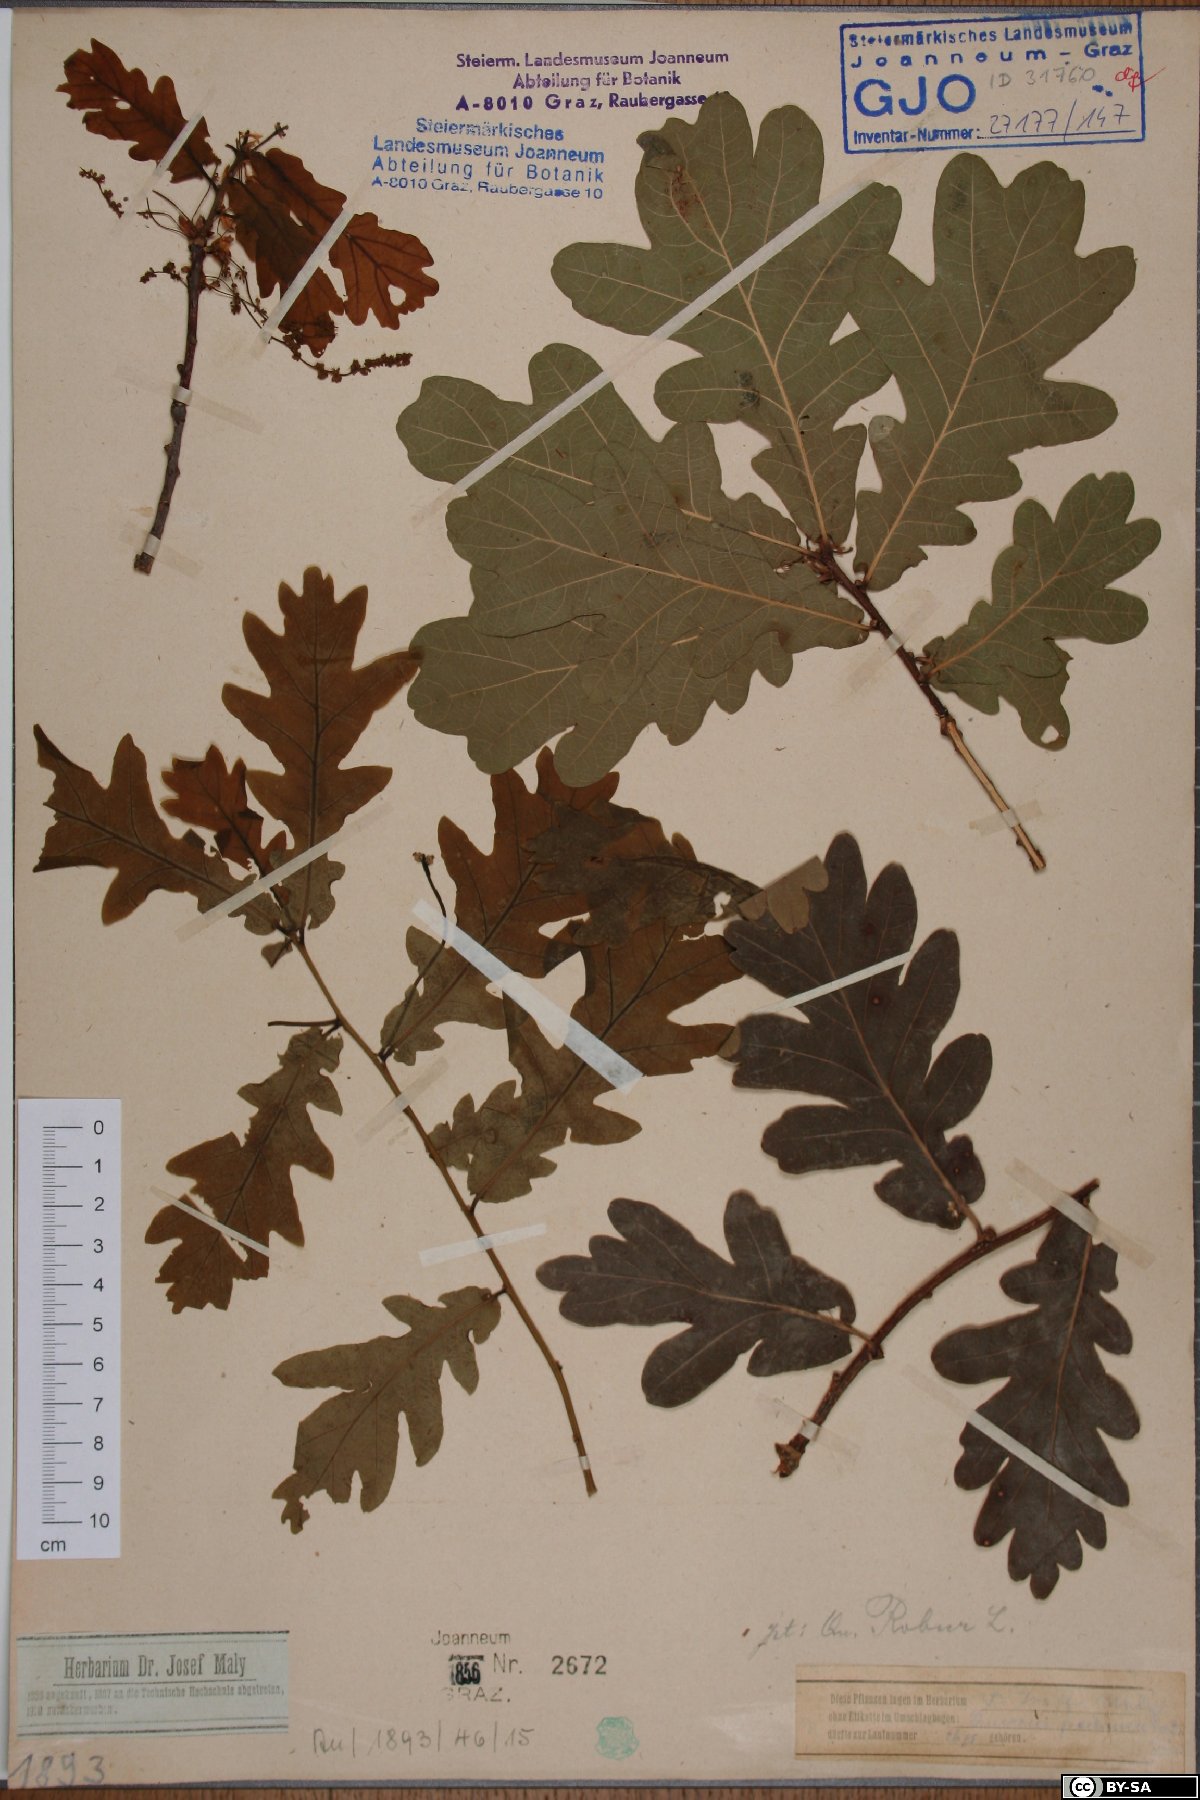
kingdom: Plantae
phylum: Tracheophyta
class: Magnoliopsida
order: Fagales
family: Fagaceae
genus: Quercus
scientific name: Quercus robur
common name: Pedunculate oak
